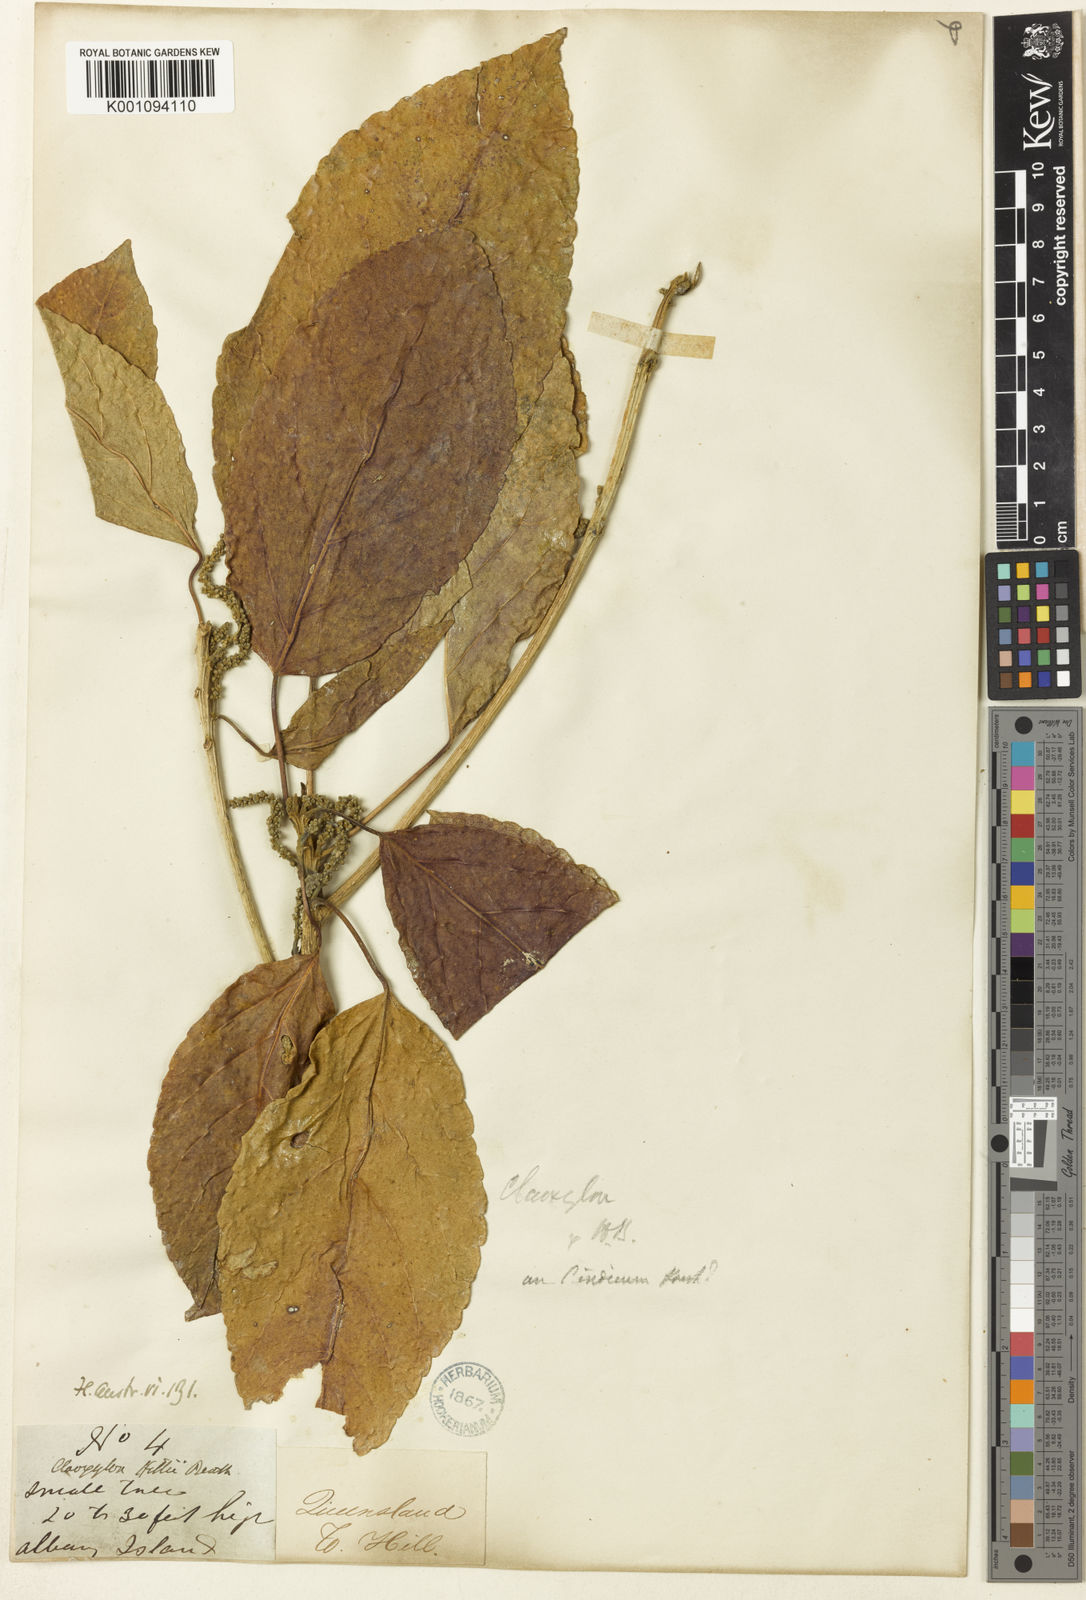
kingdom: Plantae
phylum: Tracheophyta
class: Magnoliopsida
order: Malpighiales
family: Euphorbiaceae
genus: Claoxylon
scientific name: Claoxylon tenerifolium
